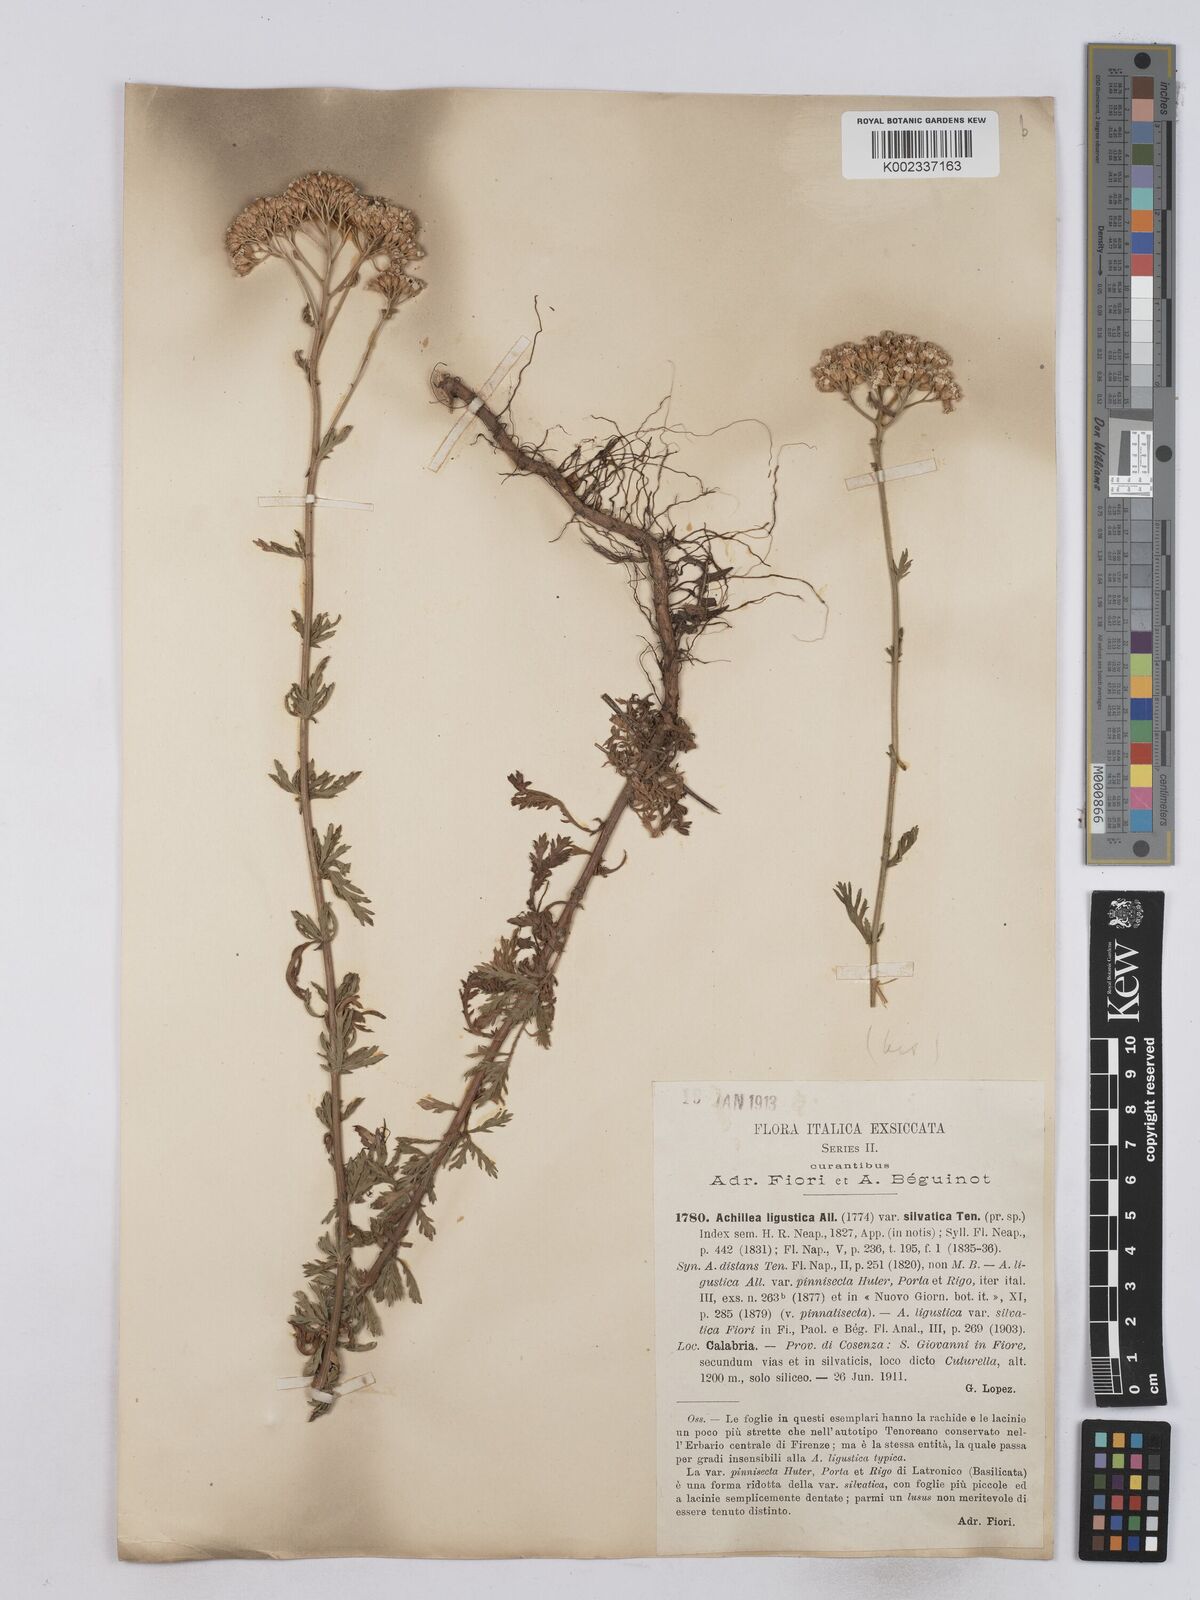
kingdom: Plantae
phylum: Tracheophyta
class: Magnoliopsida
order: Asterales
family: Asteraceae
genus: Achillea
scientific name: Achillea ligustica
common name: Southern yarrow
